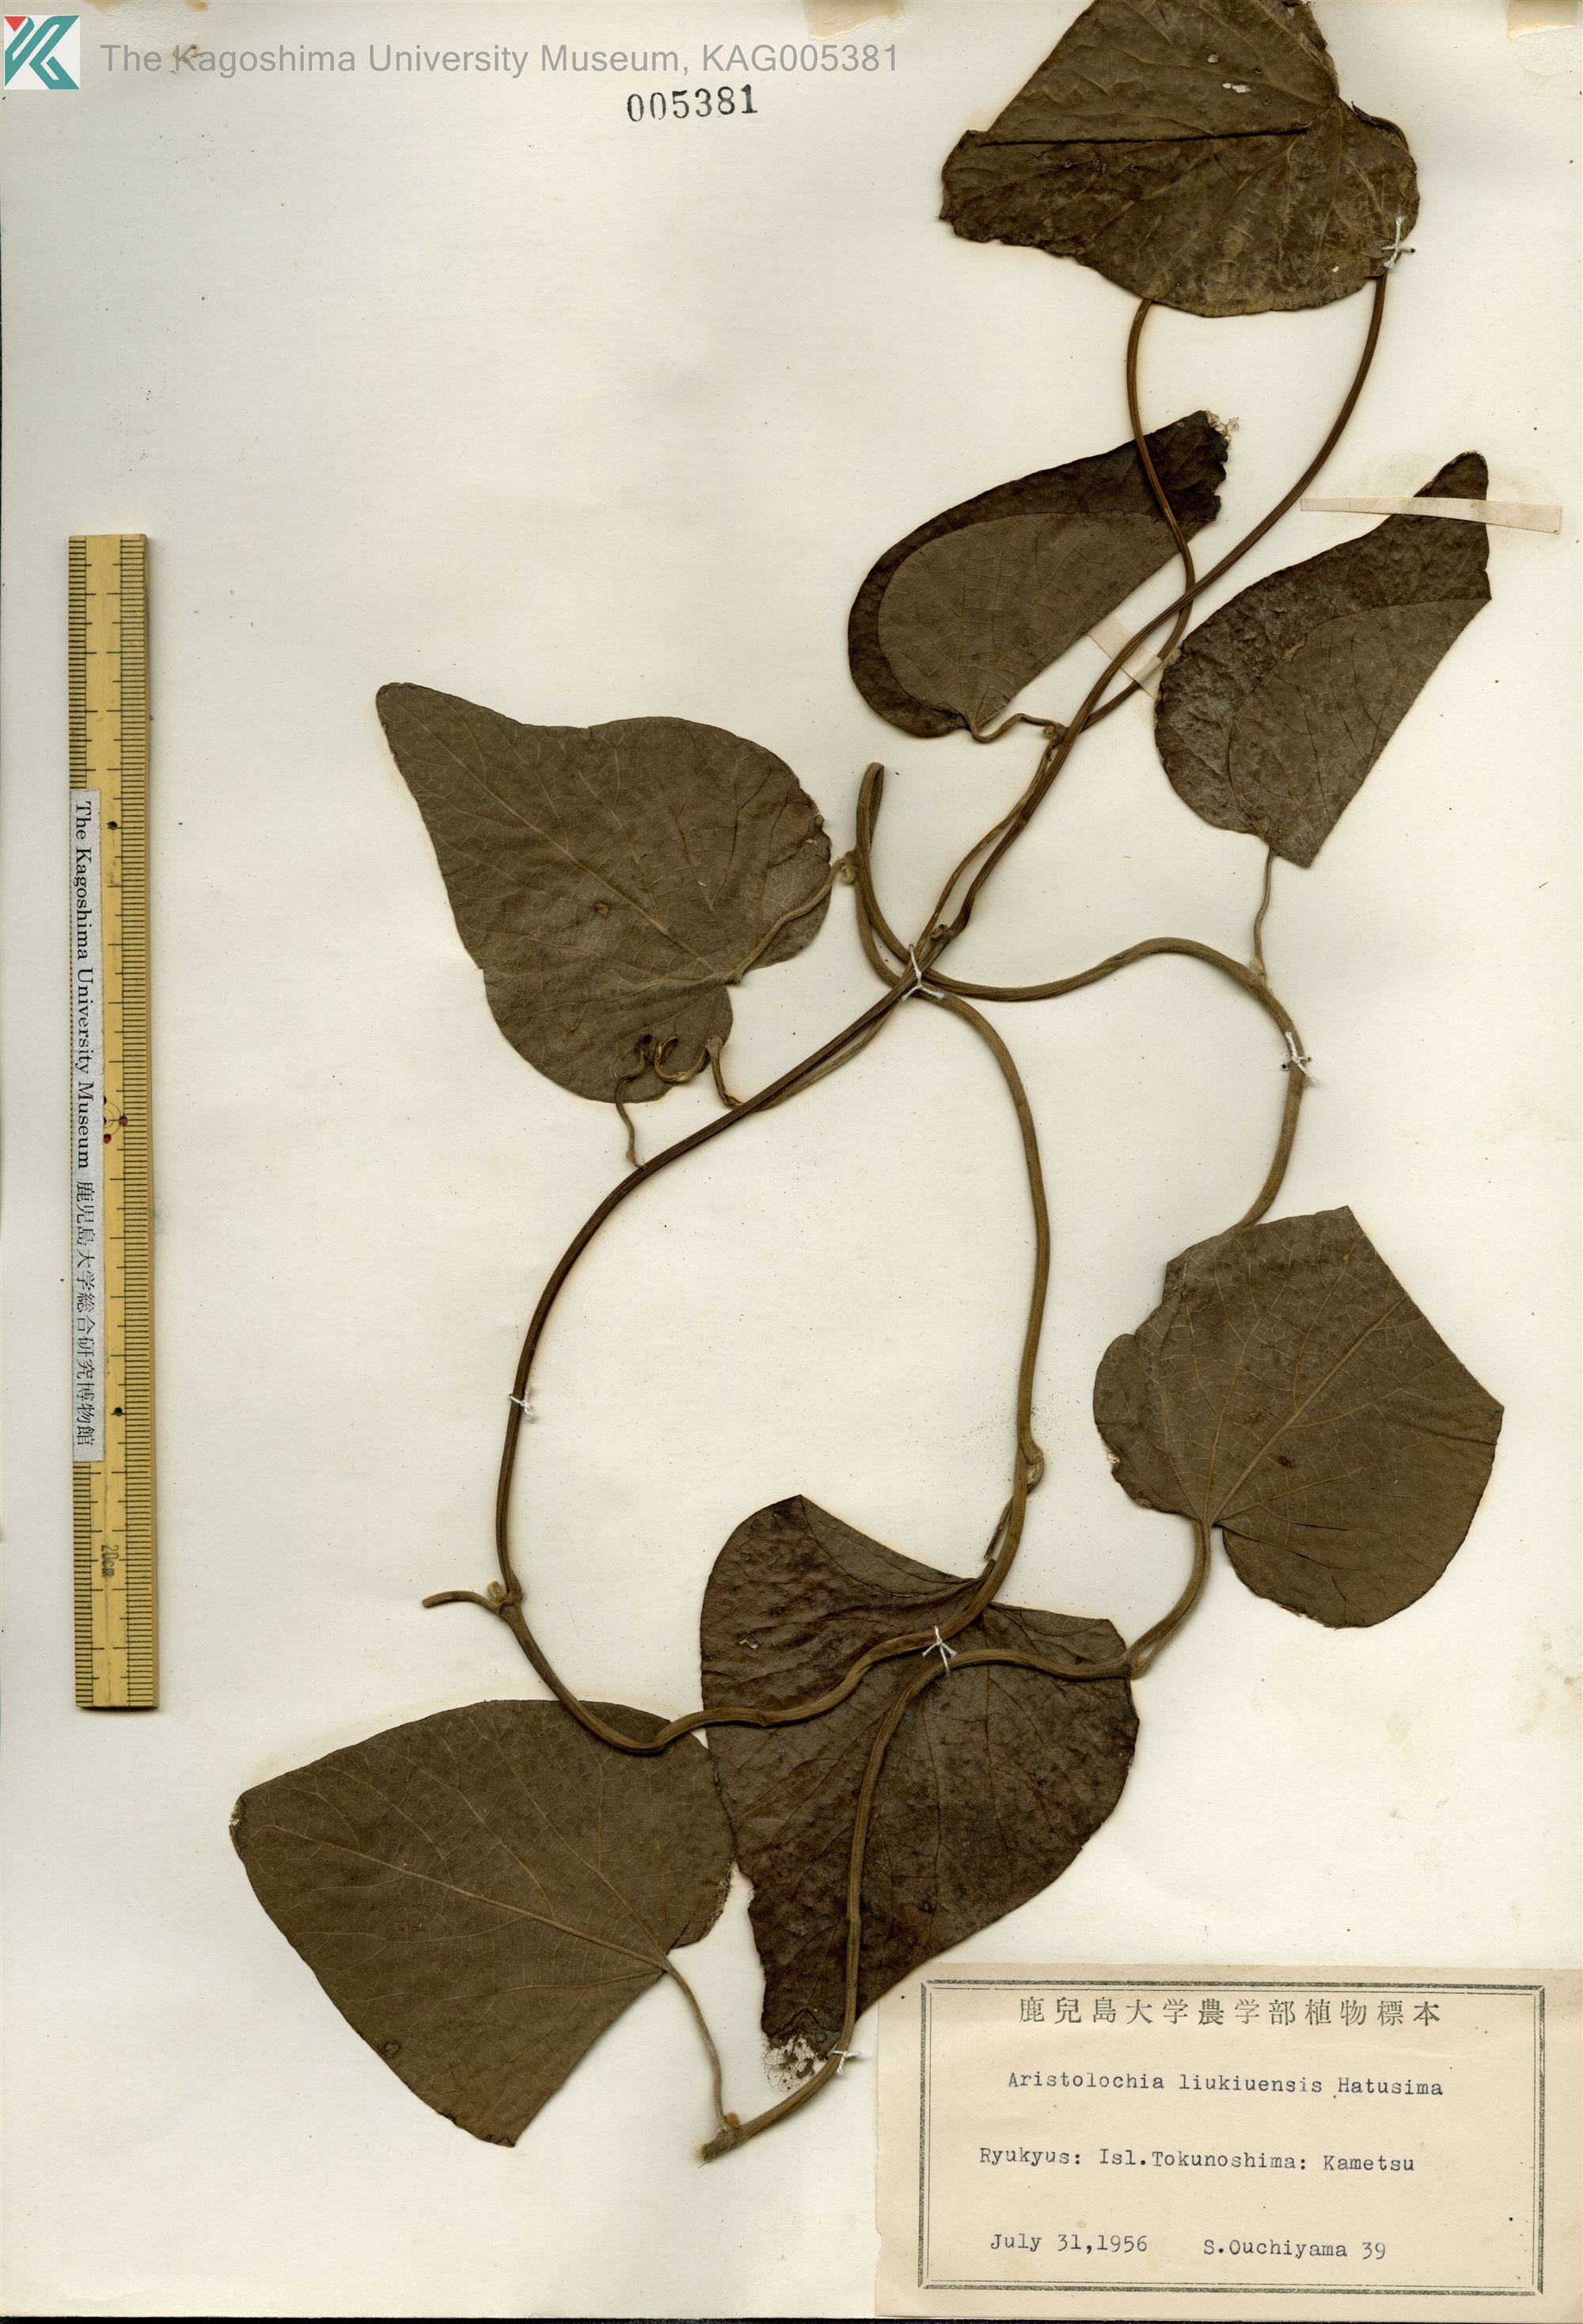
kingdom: Plantae
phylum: Tracheophyta
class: Magnoliopsida
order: Piperales
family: Aristolochiaceae
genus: Isotrema
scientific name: Isotrema liukiuense
